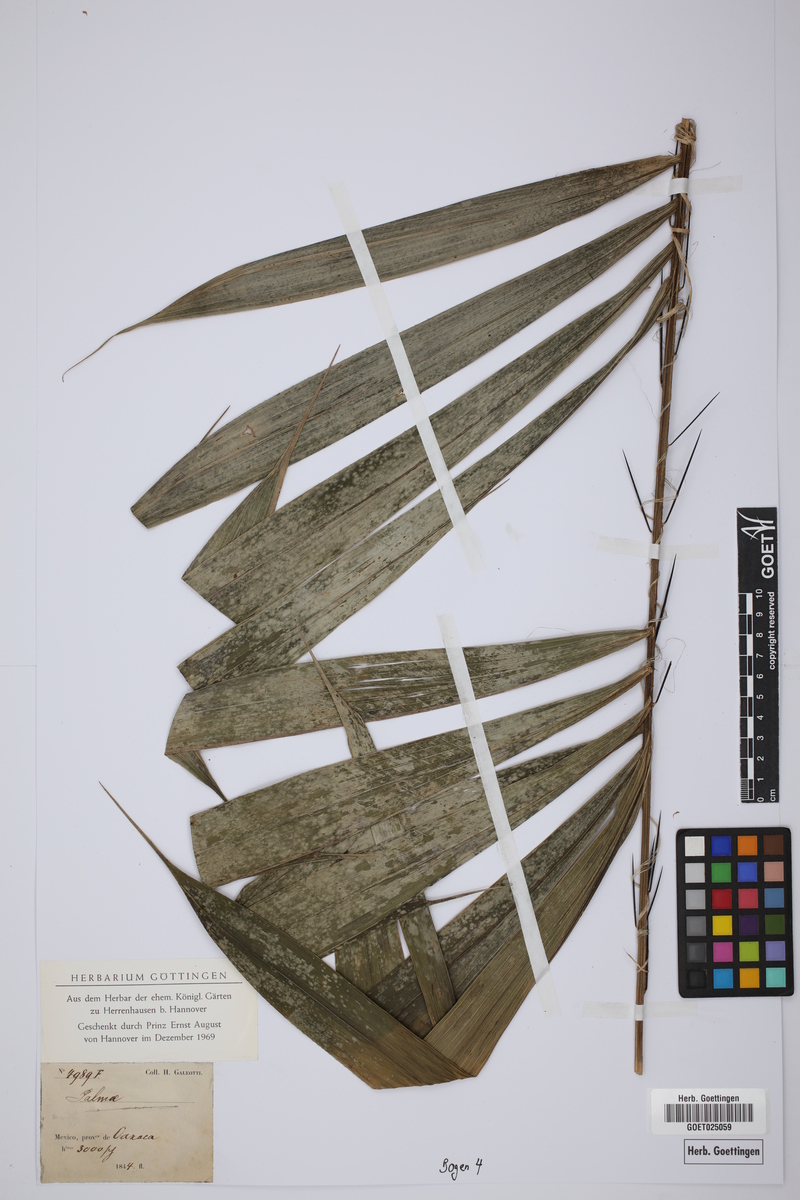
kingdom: Plantae
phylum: Tracheophyta
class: Liliopsida
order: Arecales
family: Arecaceae
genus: Bactris
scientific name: Bactris mexicana
